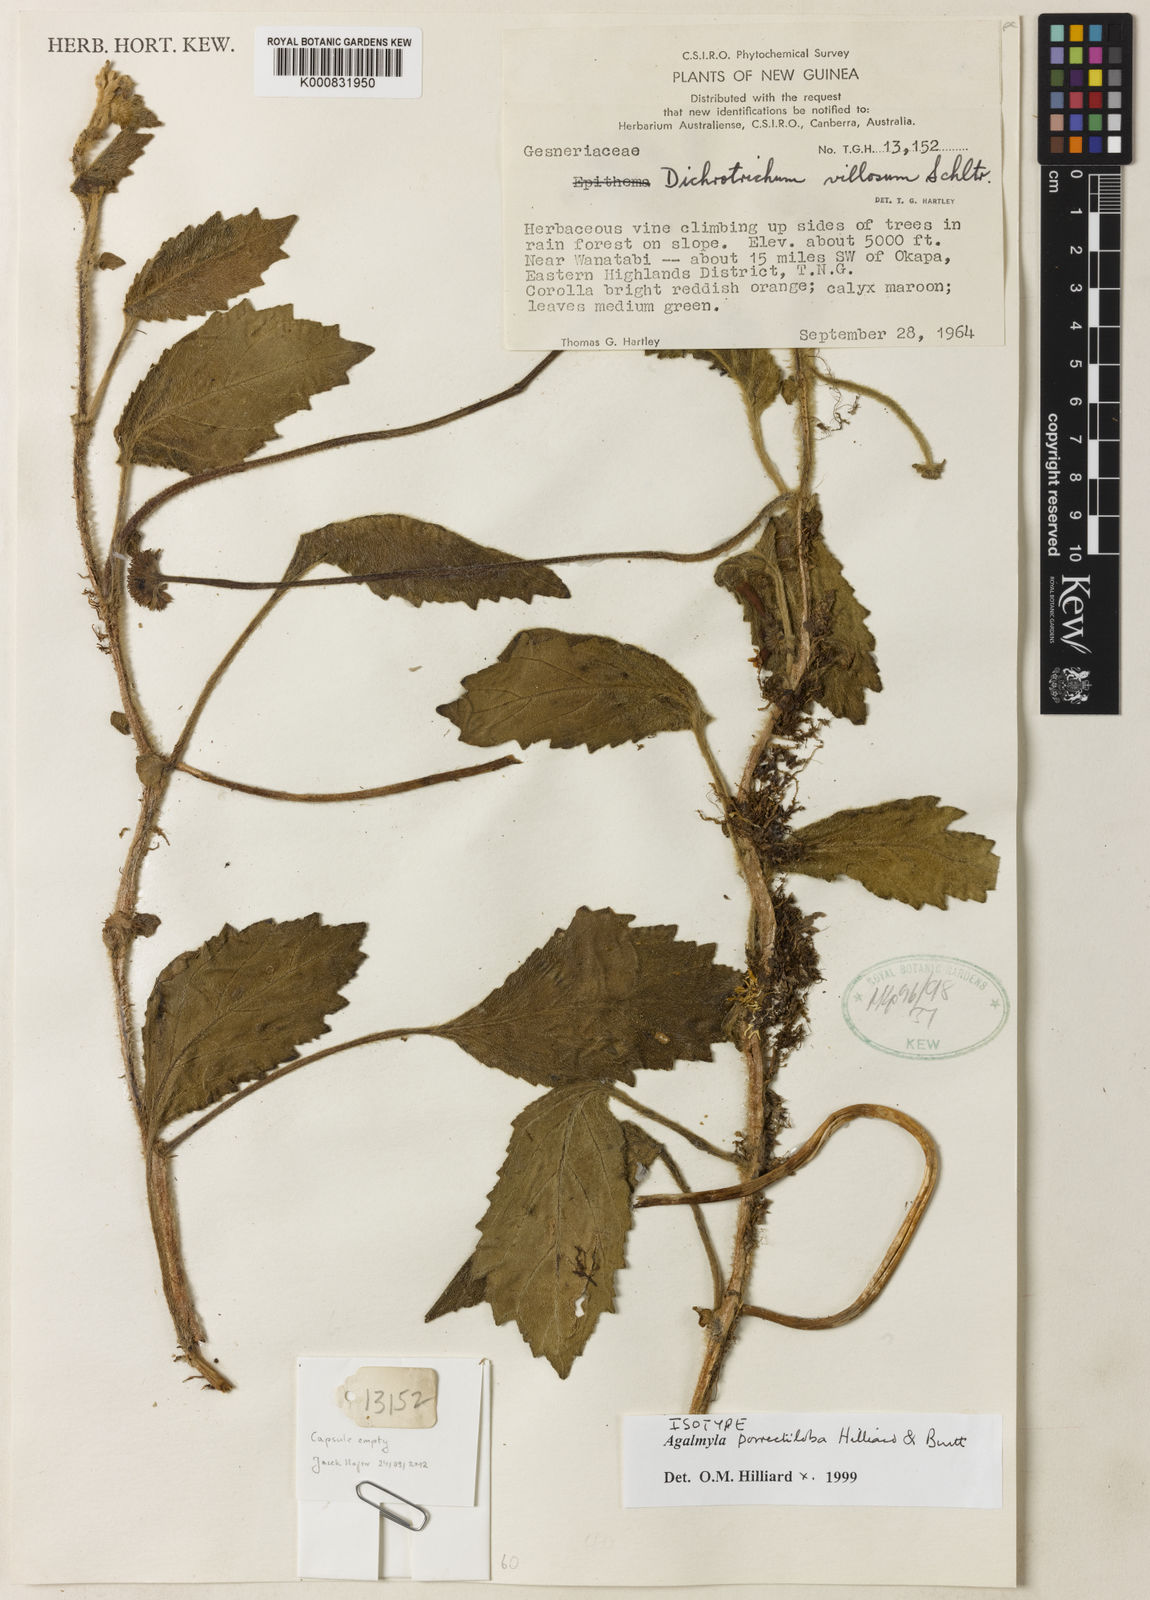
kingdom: Plantae
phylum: Tracheophyta
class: Magnoliopsida
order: Lamiales
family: Gesneriaceae
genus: Agalmyla
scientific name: Agalmyla porrectiloba
